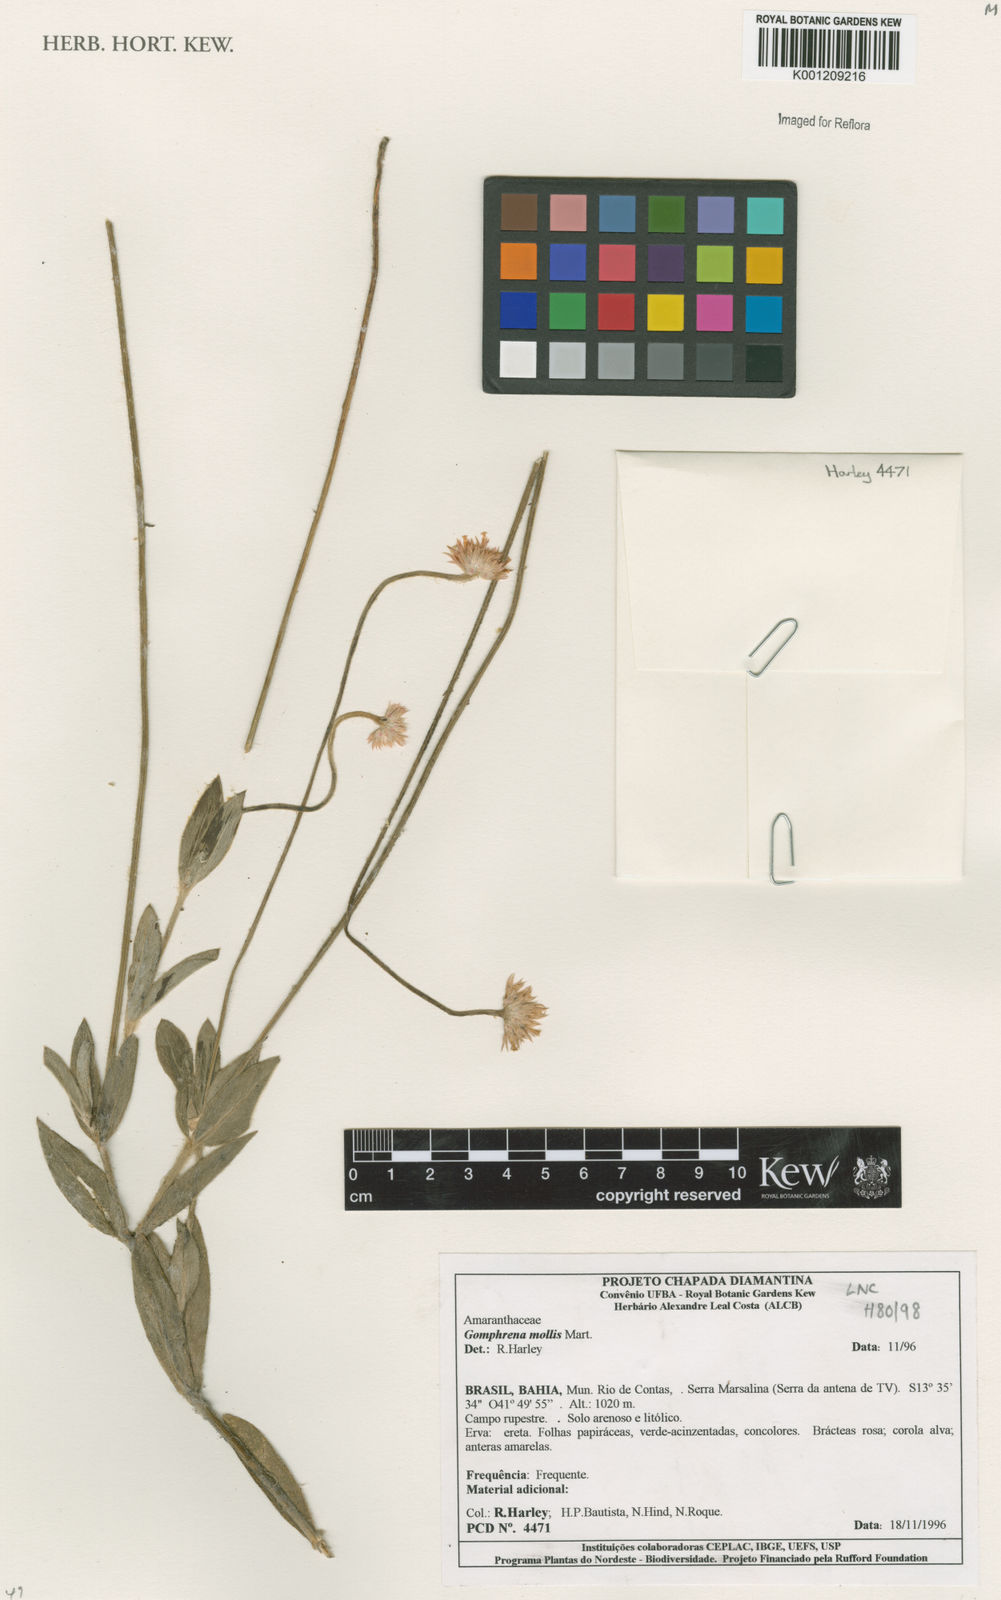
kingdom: Plantae
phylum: Tracheophyta
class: Magnoliopsida
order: Caryophyllales
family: Amaranthaceae
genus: Gomphrena
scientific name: Gomphrena mollis
